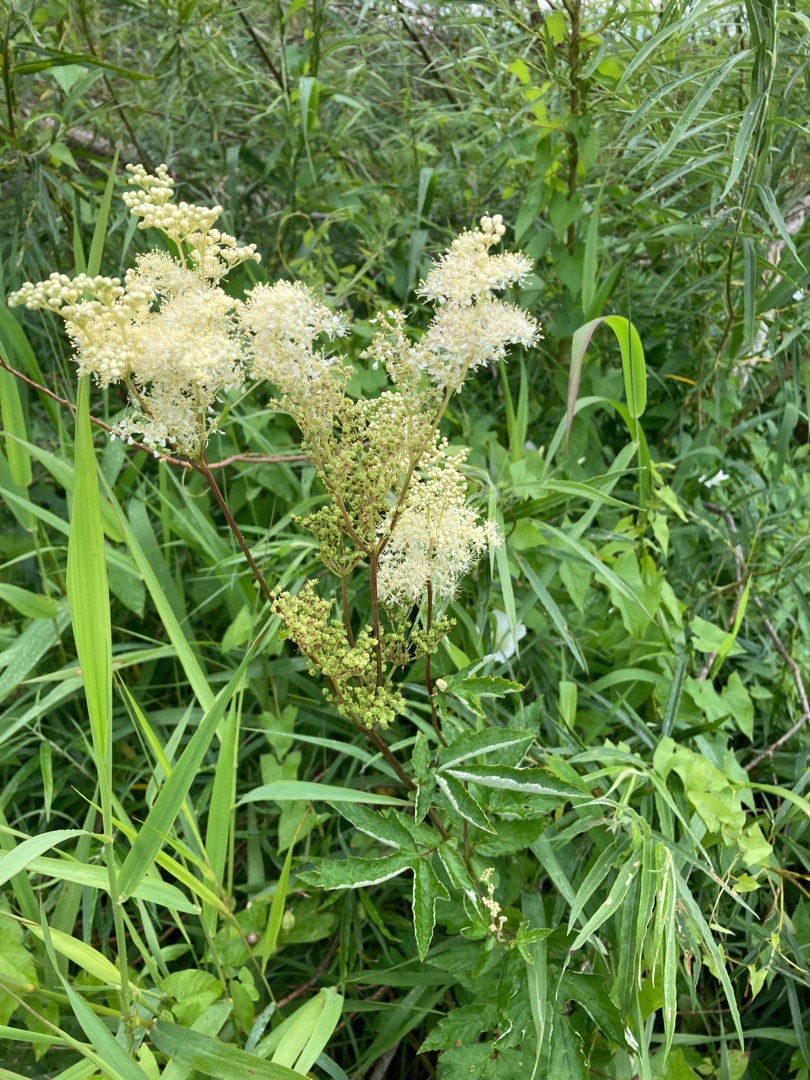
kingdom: Plantae
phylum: Tracheophyta
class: Magnoliopsida
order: Rosales
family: Rosaceae
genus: Filipendula
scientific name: Filipendula ulmaria
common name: Almindelig mjødurt
